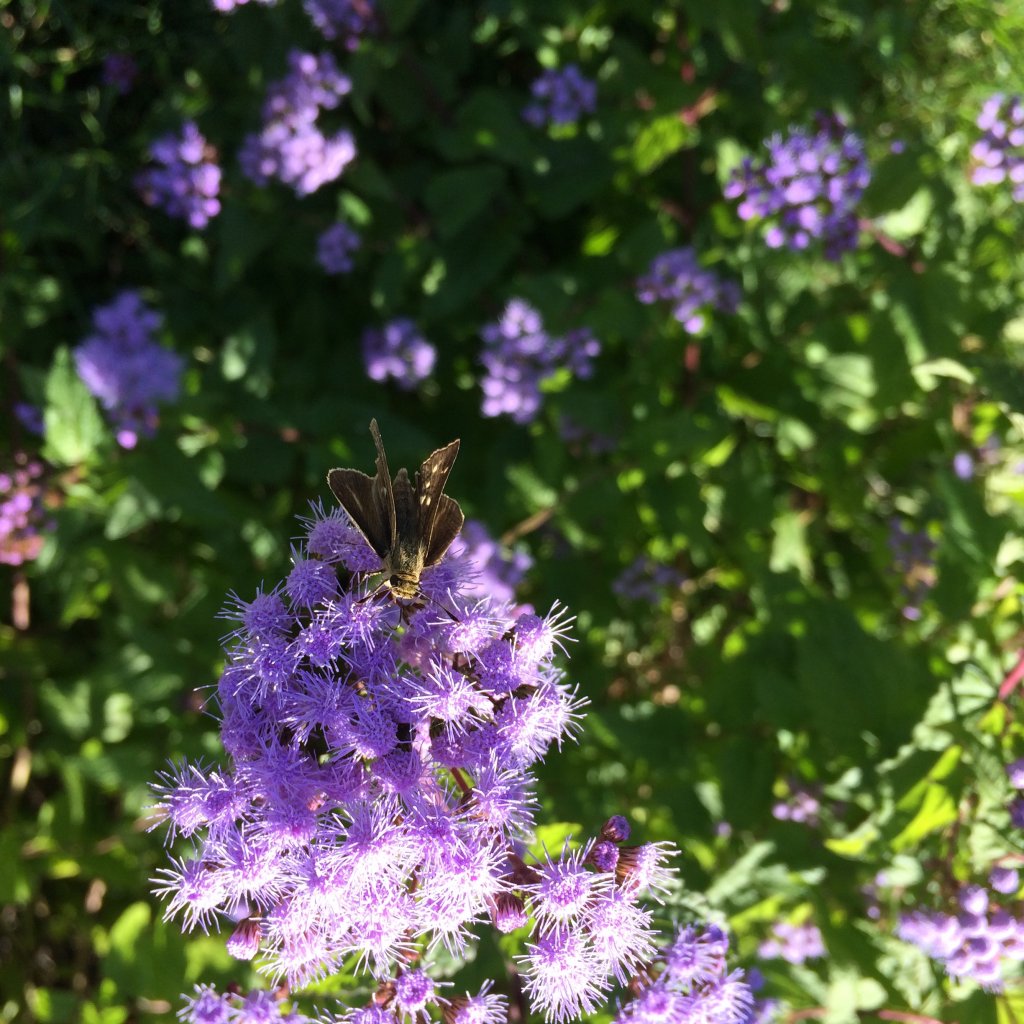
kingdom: Animalia
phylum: Arthropoda
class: Insecta
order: Lepidoptera
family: Hesperiidae
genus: Panoquina
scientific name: Panoquina panoquin
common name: Salt Marsh Skipper
